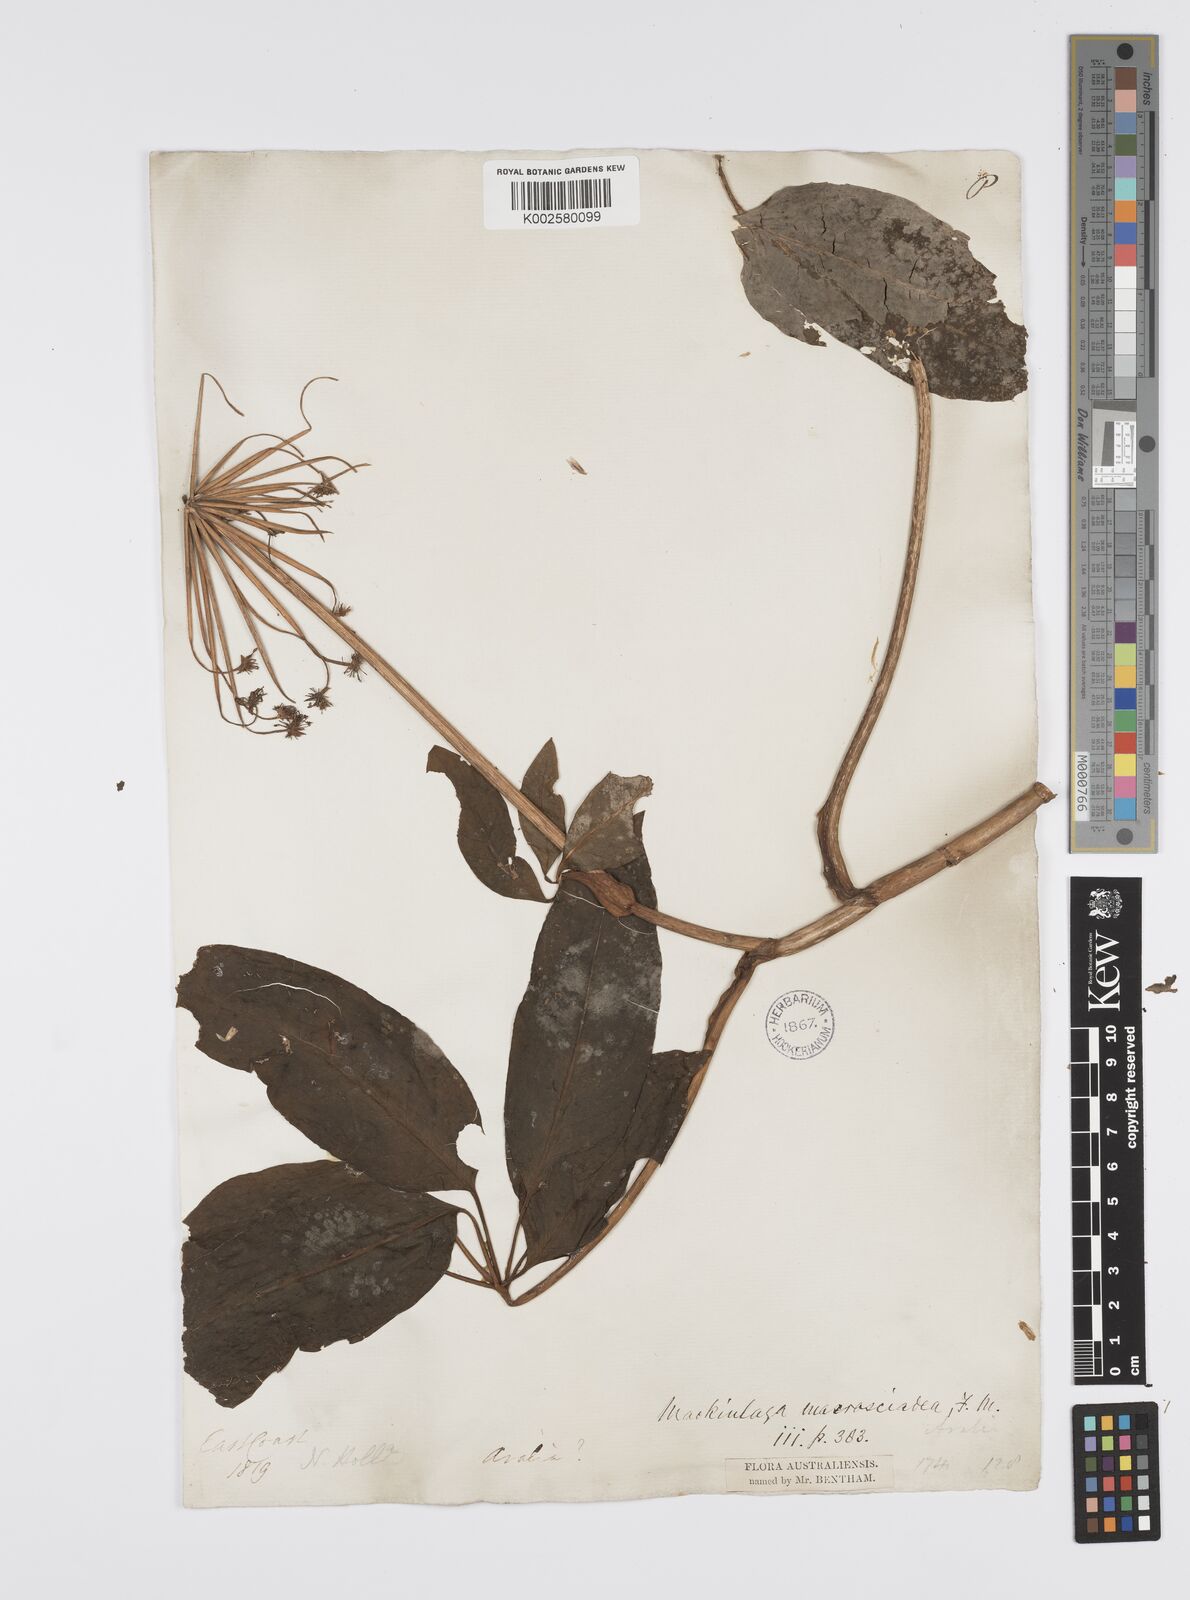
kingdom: Plantae
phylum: Tracheophyta
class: Magnoliopsida
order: Apiales
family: Apiaceae
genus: Mackinlaya
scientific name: Mackinlaya macrosciadea
